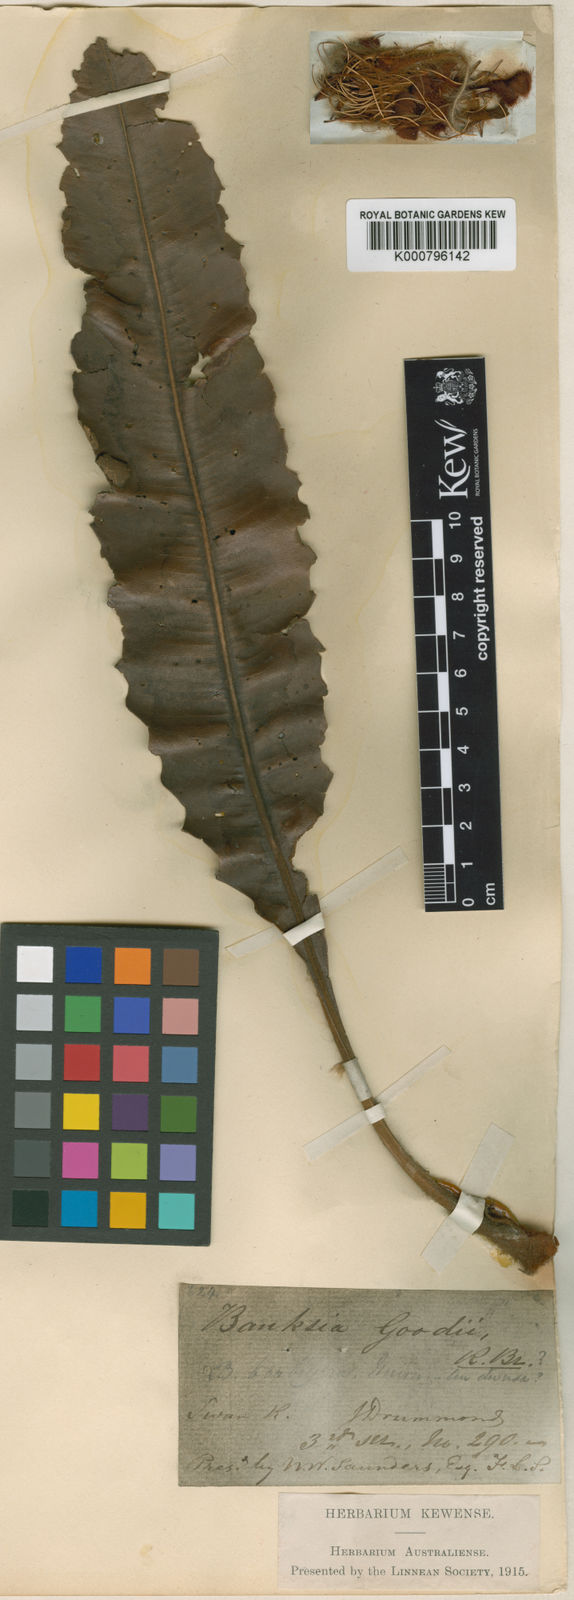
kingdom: Plantae
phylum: Tracheophyta
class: Magnoliopsida
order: Proteales
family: Proteaceae
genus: Banksia
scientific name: Banksia goodii
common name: Good’s banksia
